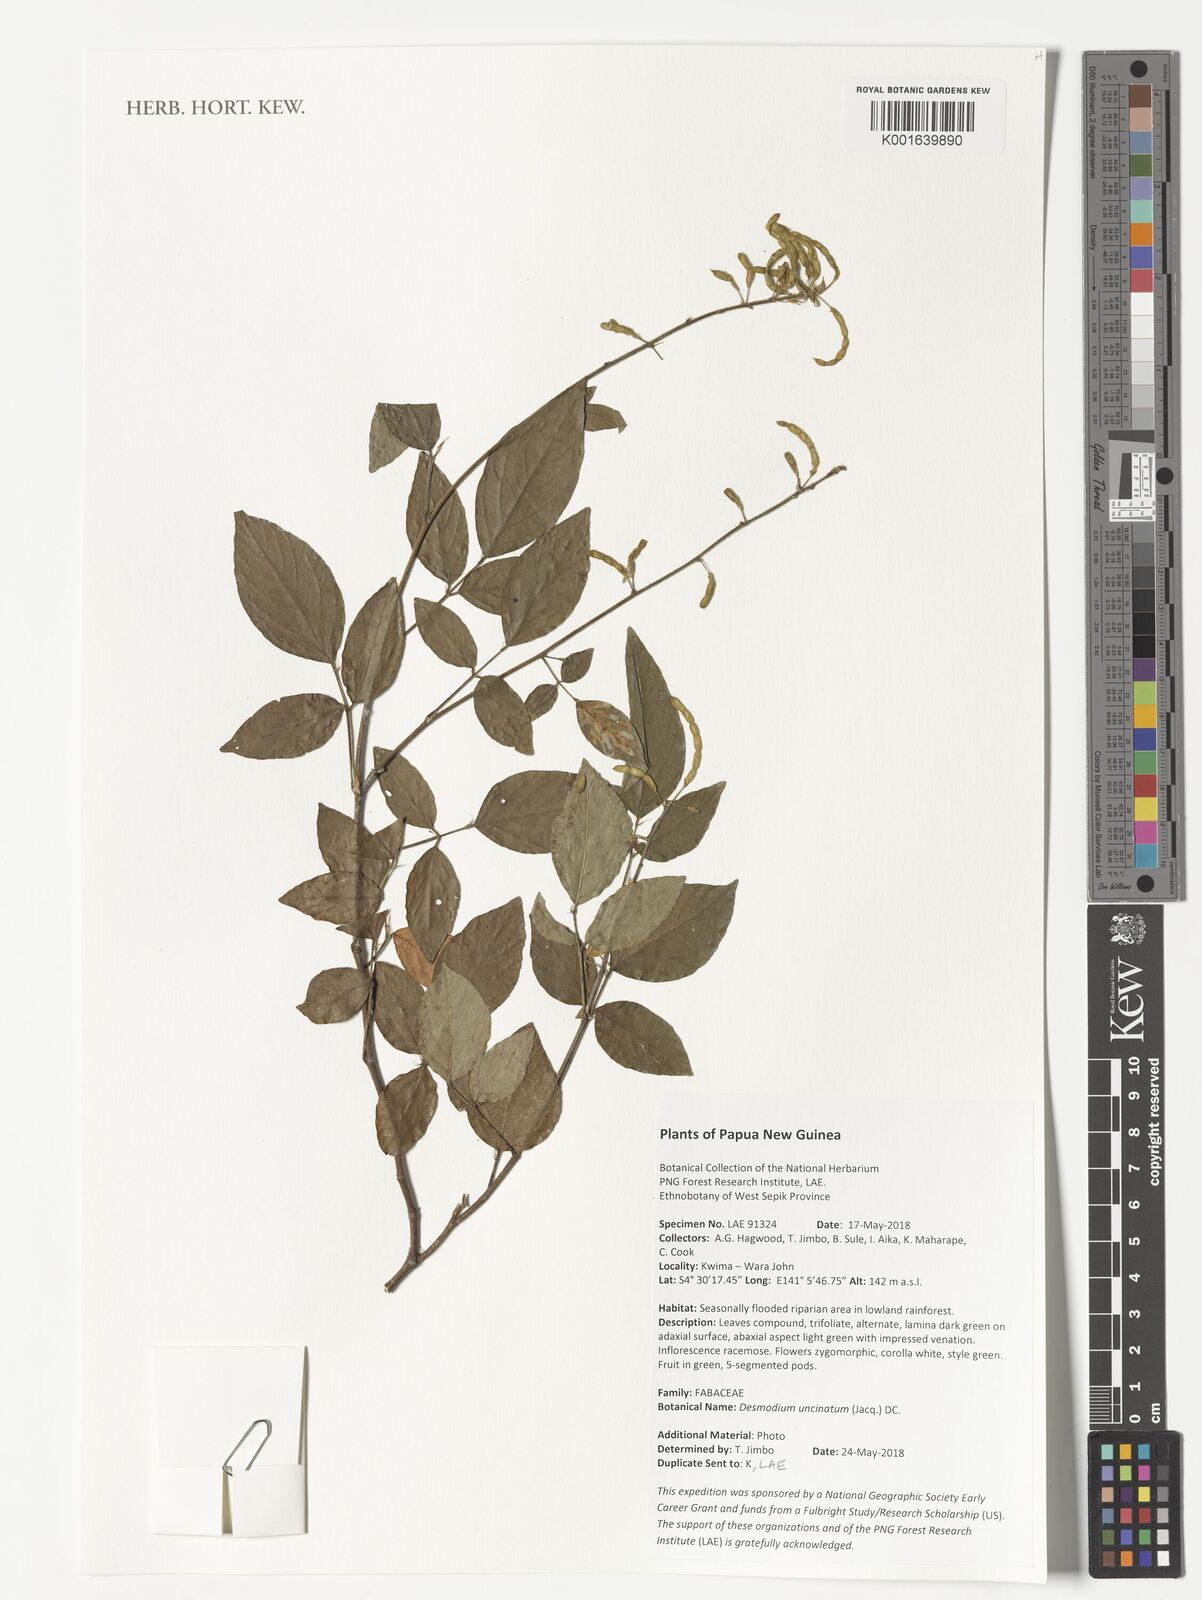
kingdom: Plantae
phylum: Tracheophyta
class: Magnoliopsida
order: Fabales
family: Fabaceae
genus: Desmodium
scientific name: Desmodium uncinatum
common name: Silverleaf desmodium
